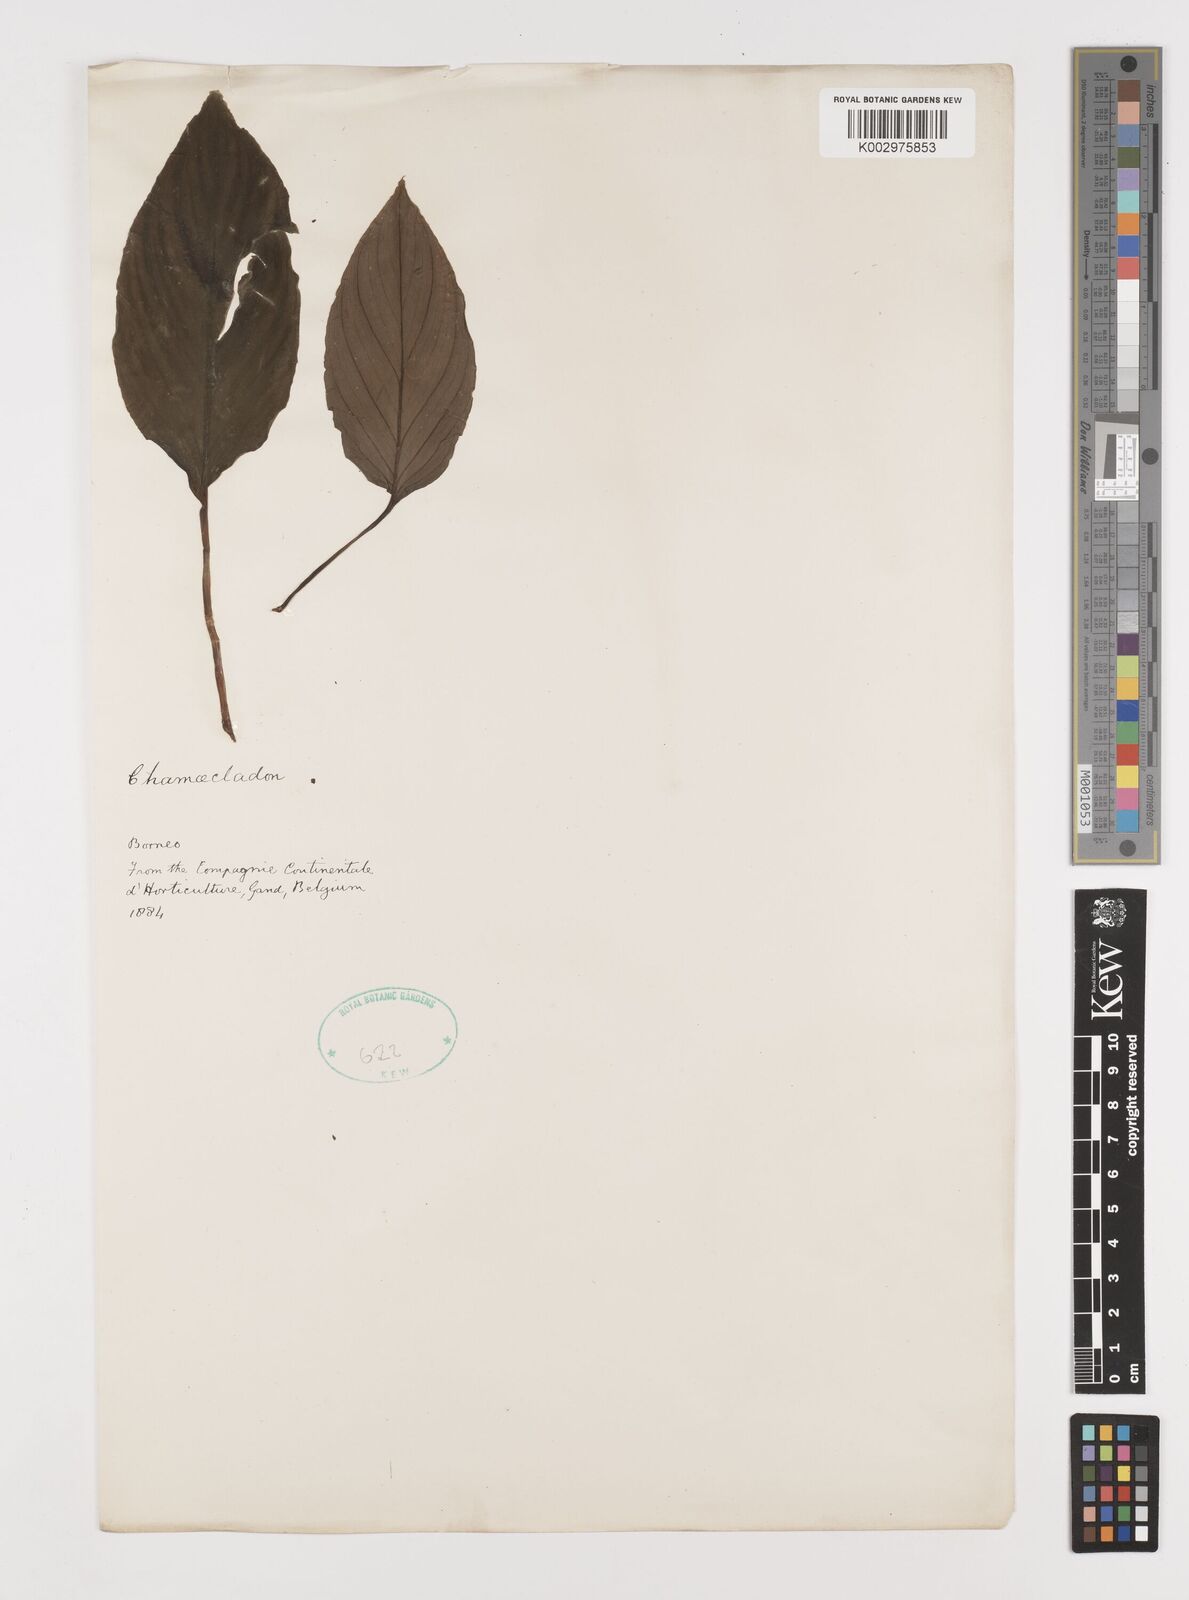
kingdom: Plantae
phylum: Tracheophyta
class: Liliopsida
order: Alismatales
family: Araceae
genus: Homalomena
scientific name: Homalomena
